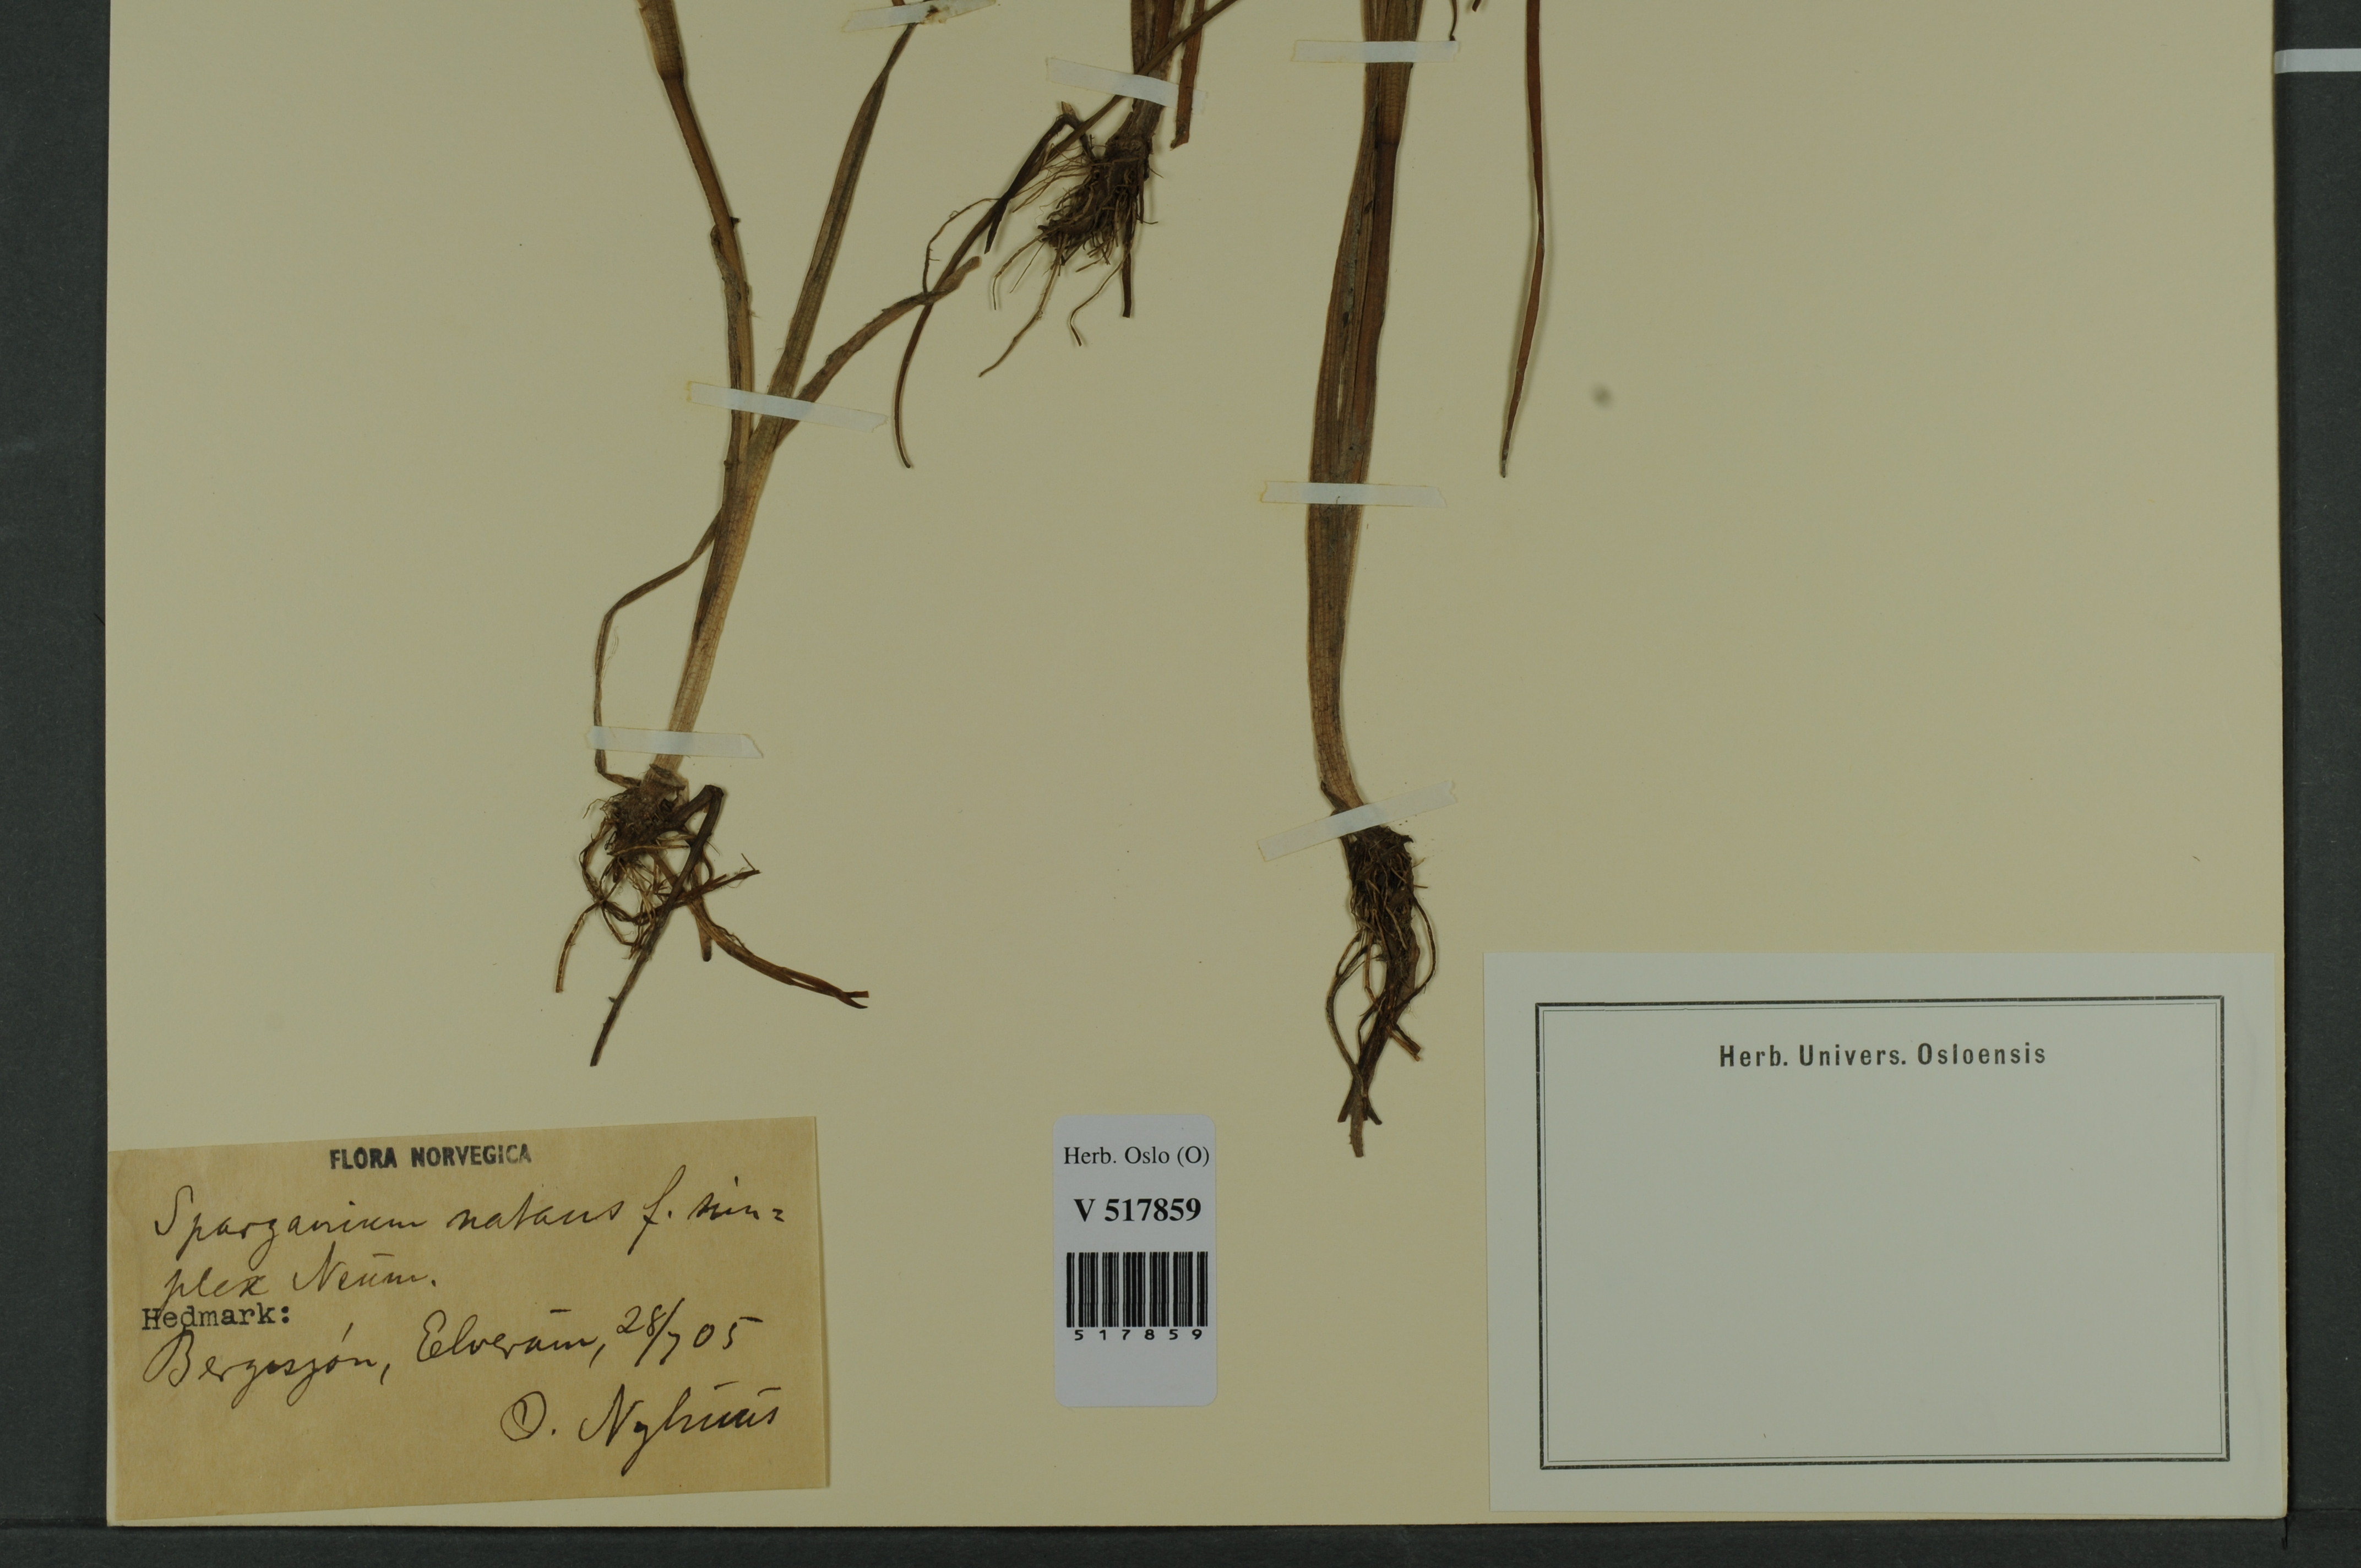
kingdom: Plantae
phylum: Tracheophyta
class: Liliopsida
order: Poales
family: Typhaceae
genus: Sparganium
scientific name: Sparganium natans
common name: Least bur-reed
